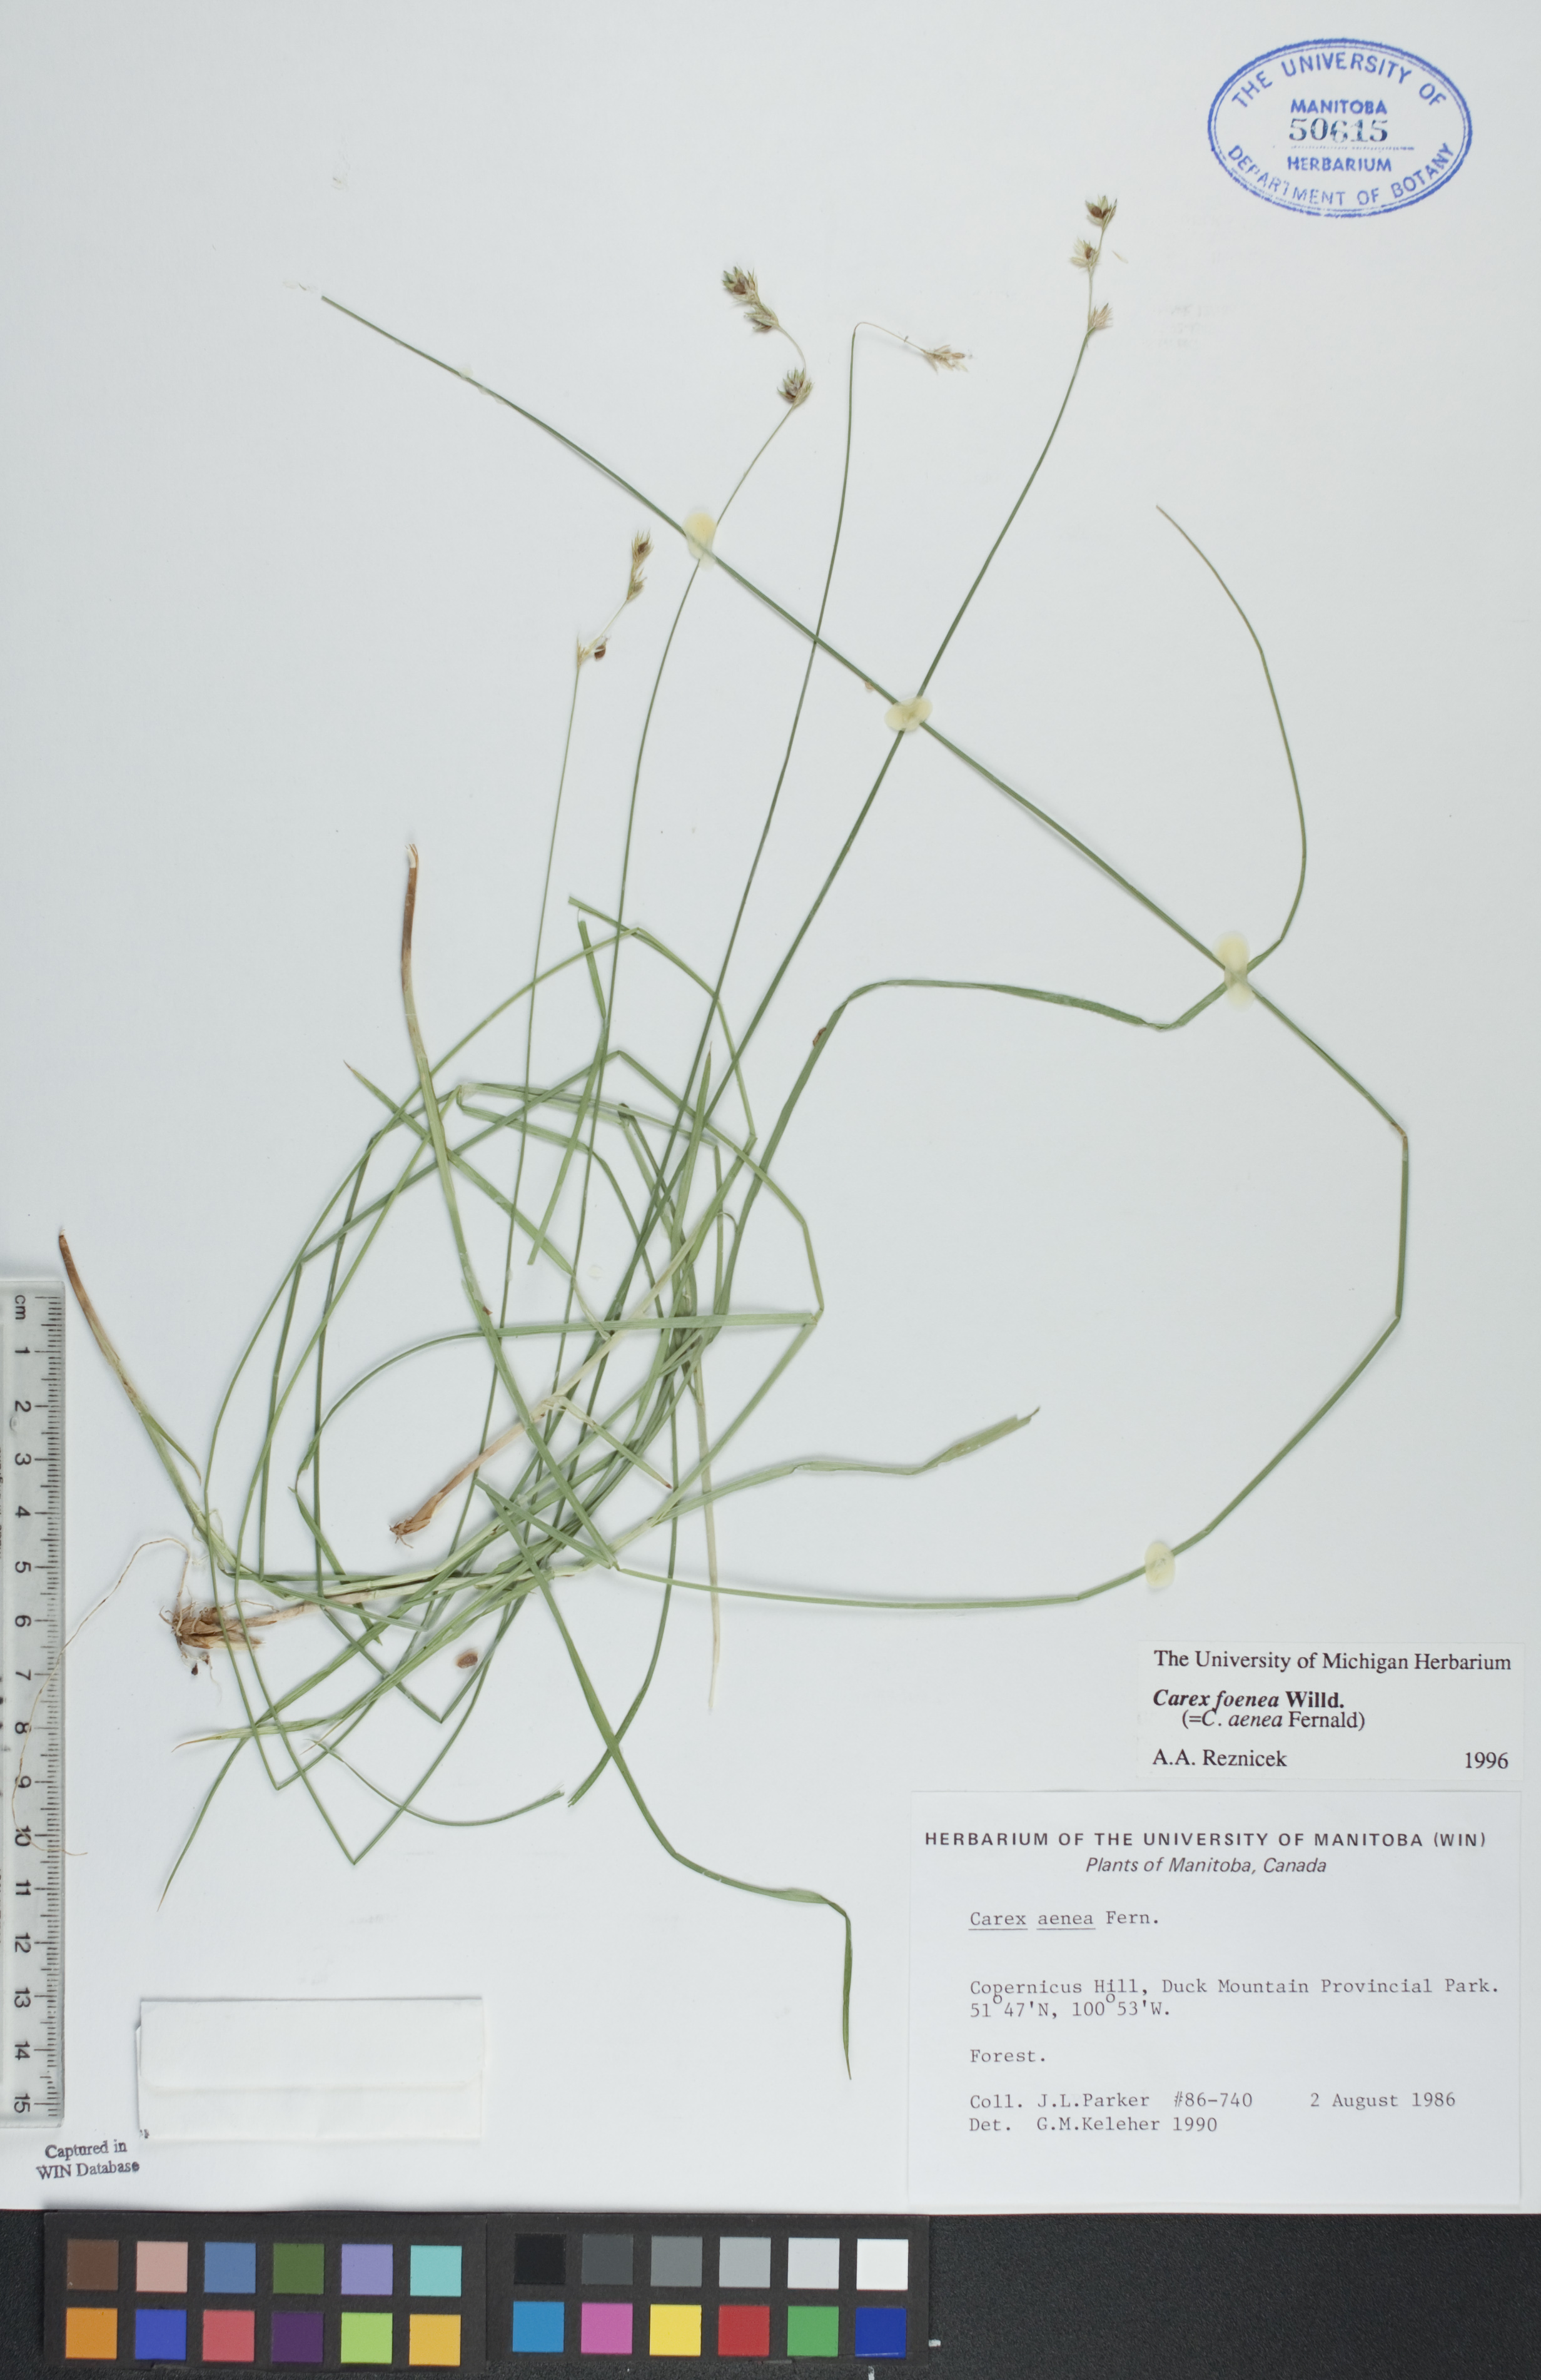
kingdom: Plantae
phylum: Tracheophyta
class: Liliopsida
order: Poales
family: Cyperaceae
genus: Carex
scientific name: Carex foenea
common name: Bronze sedge
